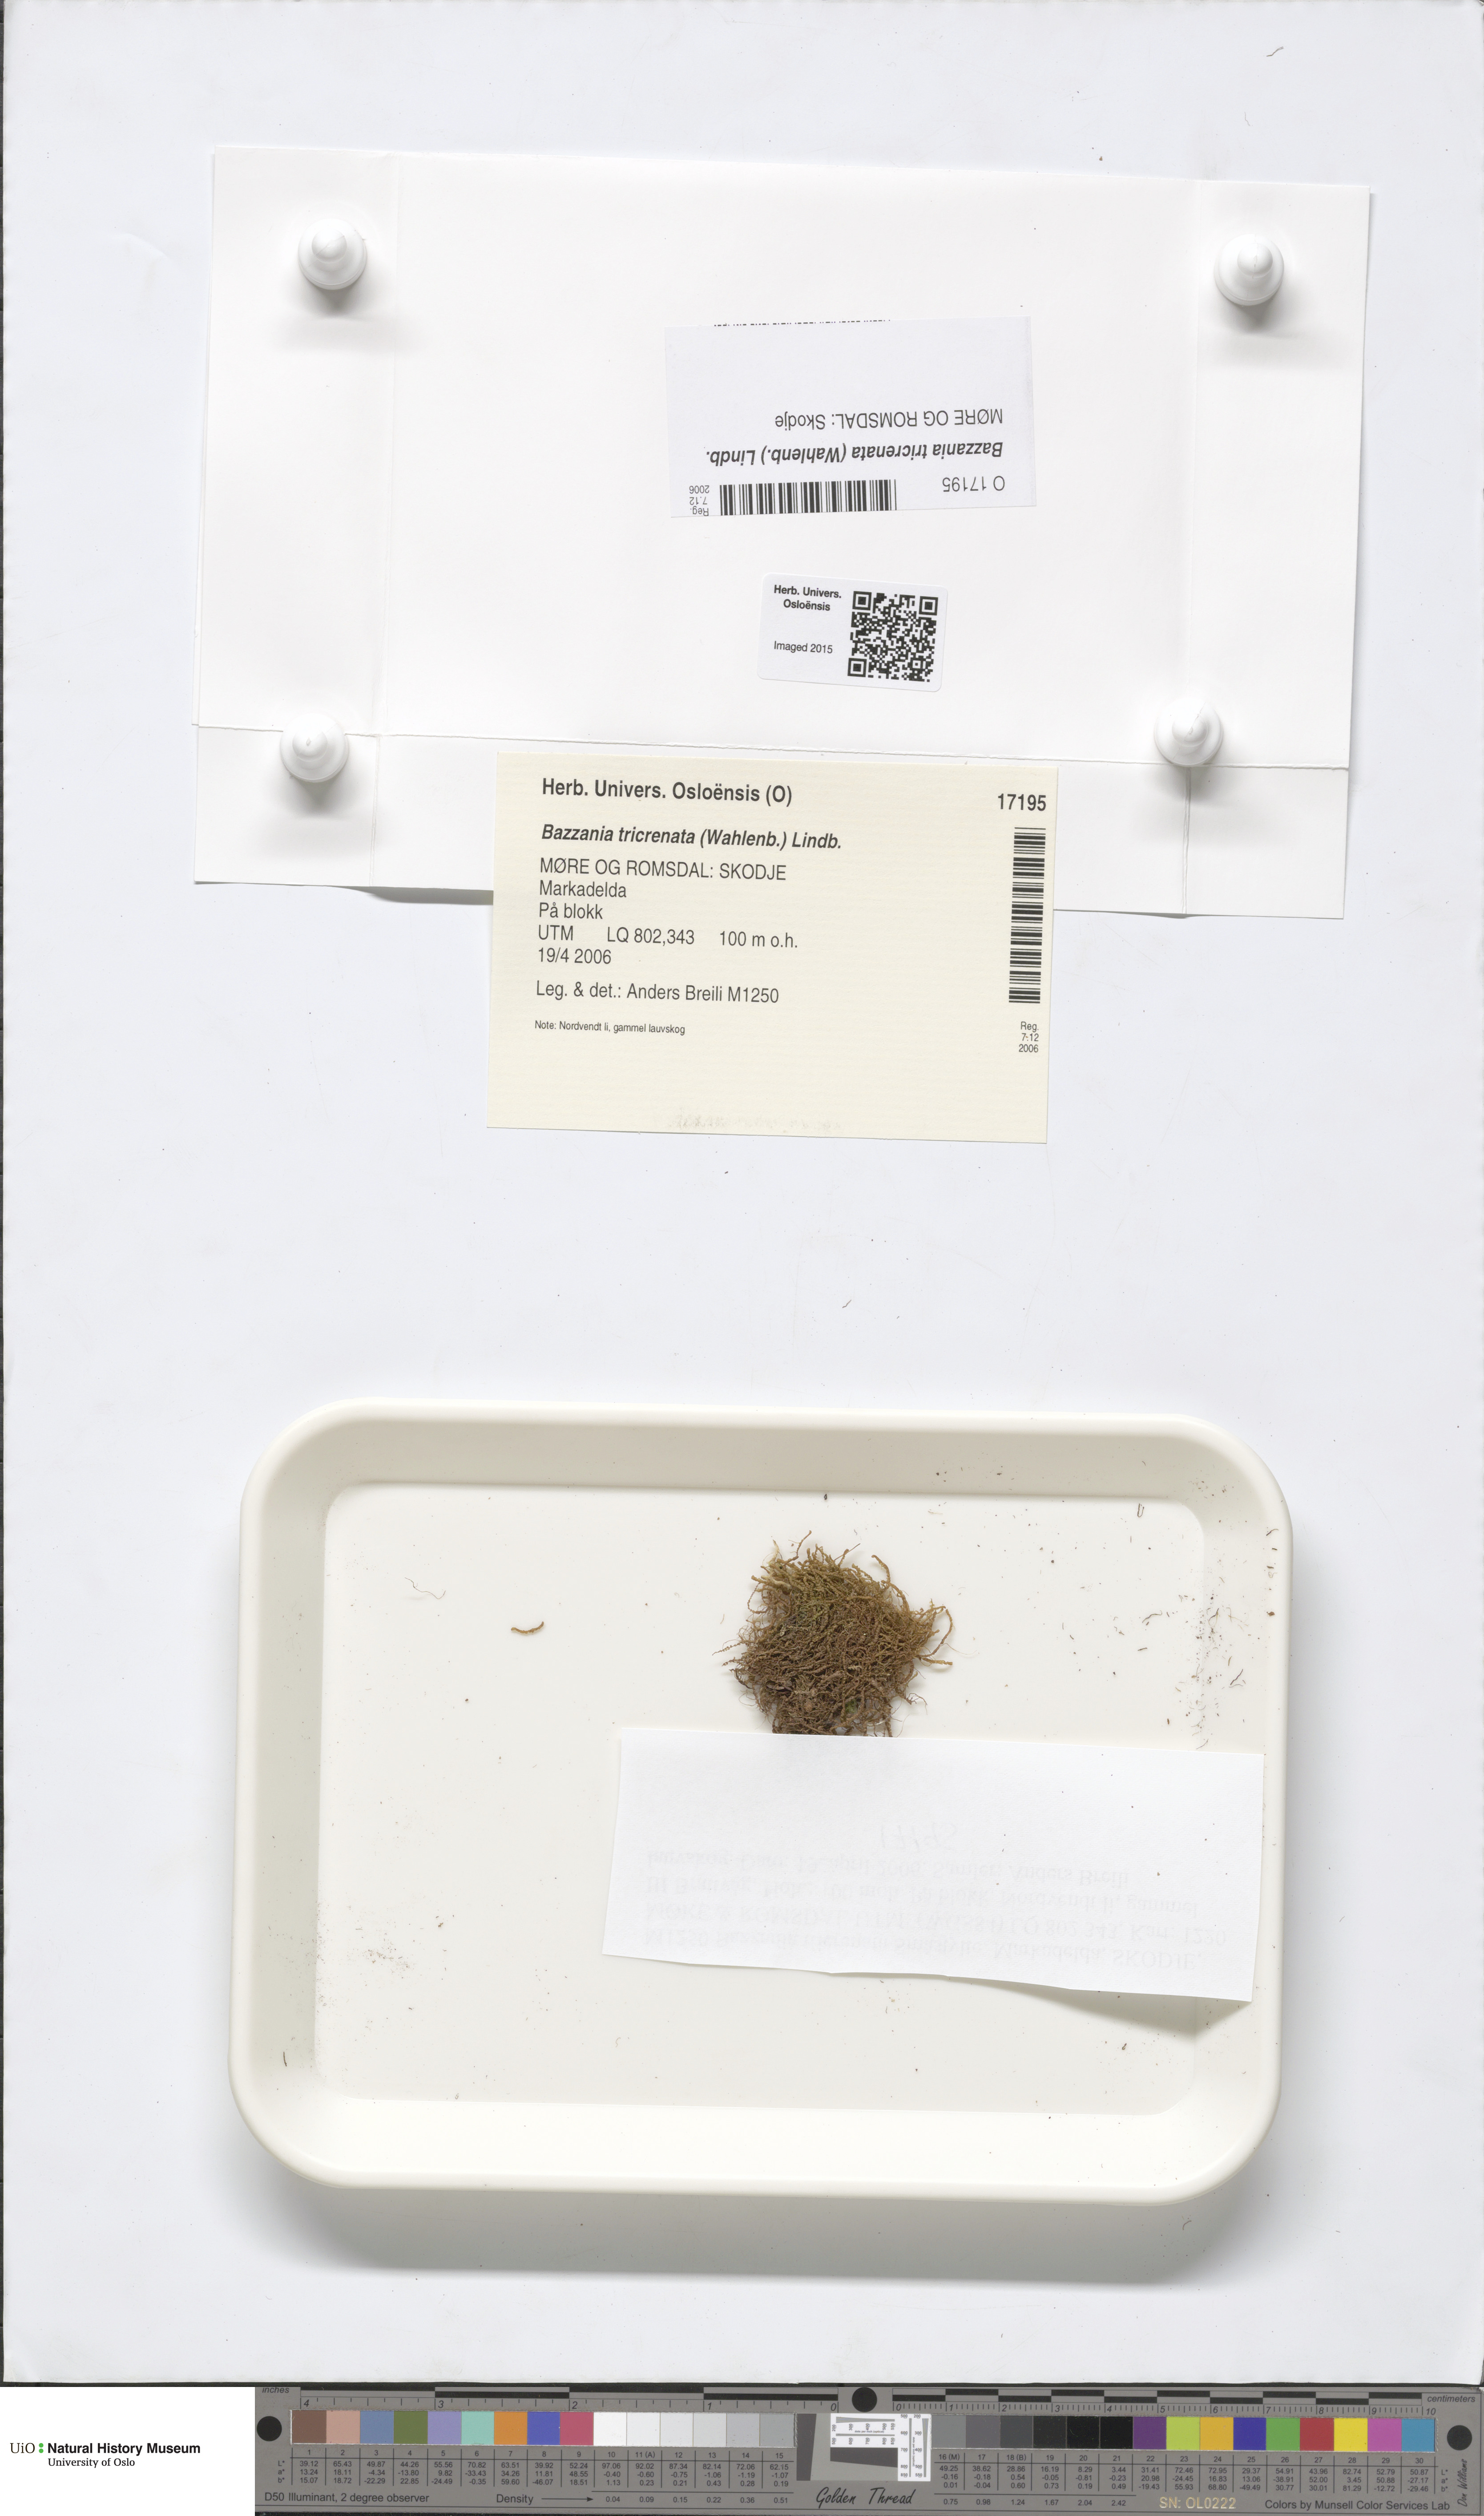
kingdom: Plantae
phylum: Marchantiophyta
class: Jungermanniopsida
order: Jungermanniales
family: Lepidoziaceae
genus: Bazzania
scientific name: Bazzania tricrenata
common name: Lesser whipwort
